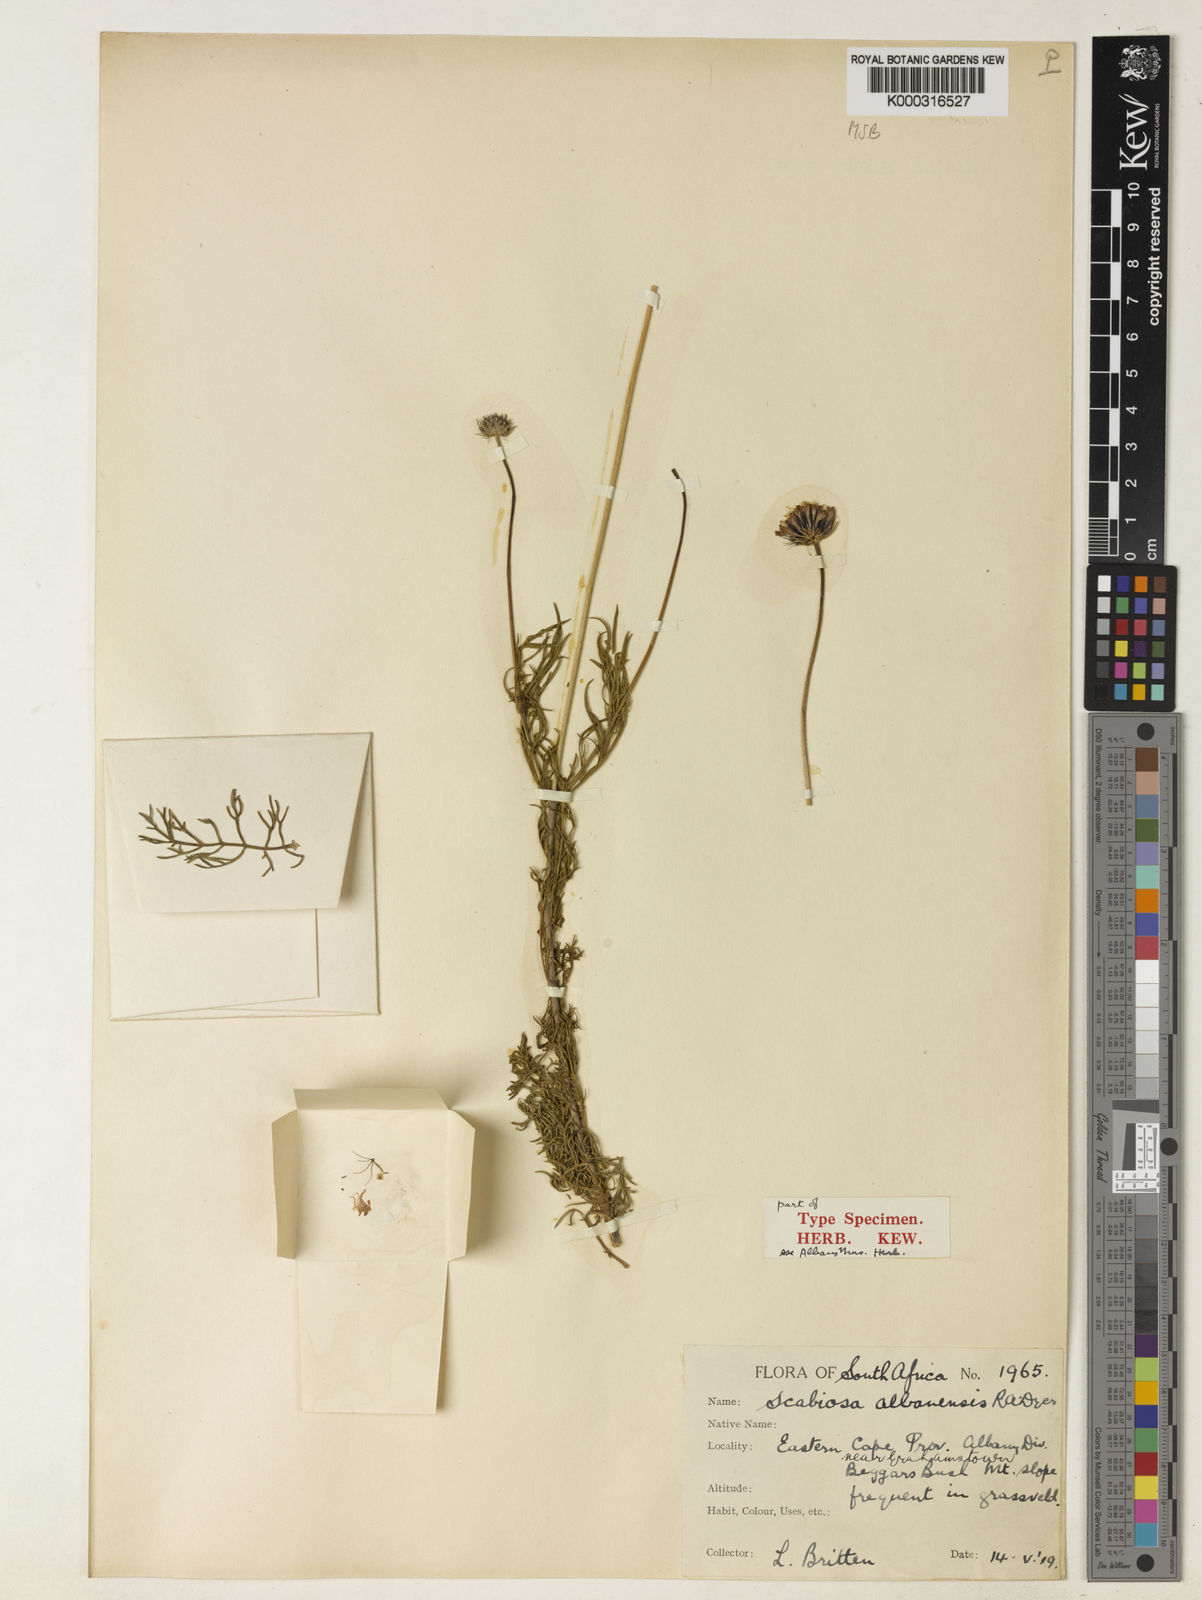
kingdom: Plantae
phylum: Tracheophyta
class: Magnoliopsida
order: Dipsacales
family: Caprifoliaceae
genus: Scabiosa
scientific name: Scabiosa albanensis
